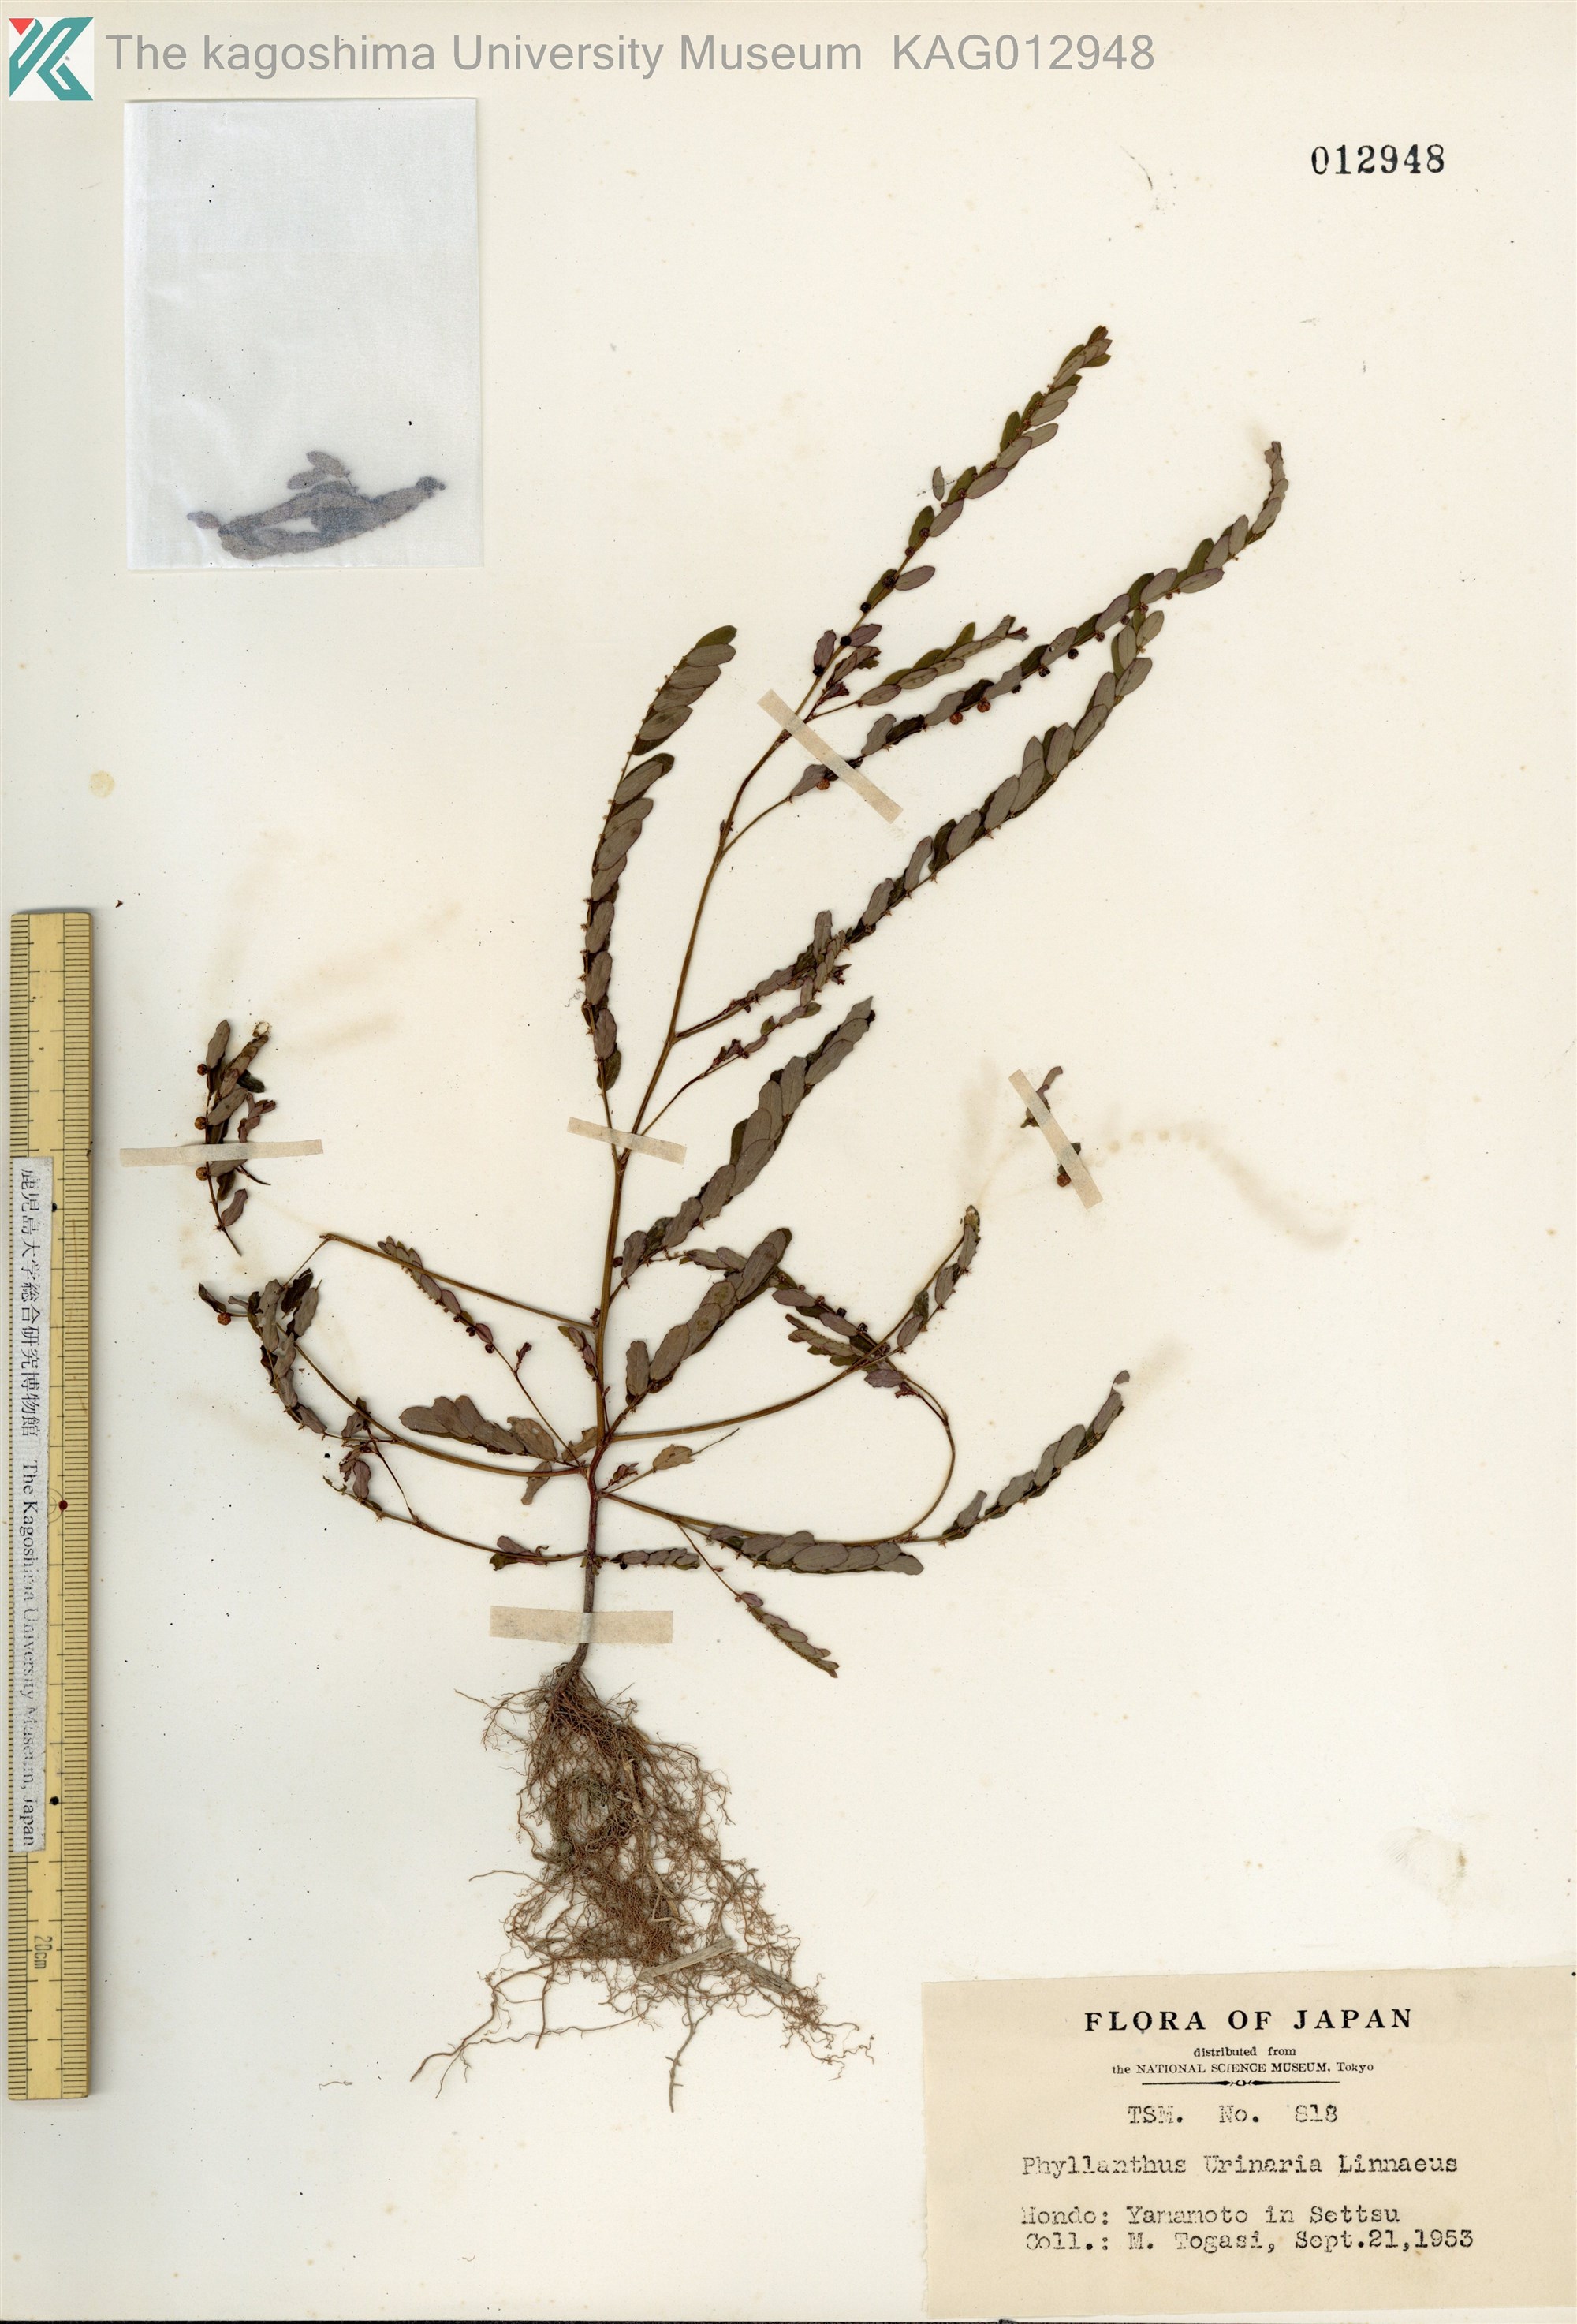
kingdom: Plantae
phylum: Tracheophyta
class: Magnoliopsida
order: Malpighiales
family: Phyllanthaceae
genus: Phyllanthus
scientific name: Phyllanthus urinaria
